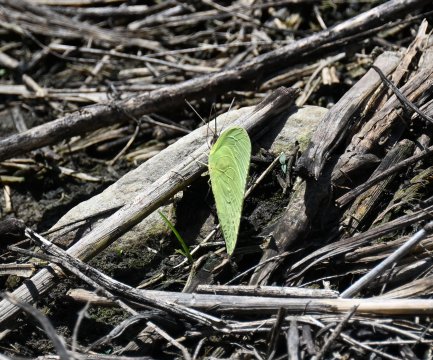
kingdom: Animalia
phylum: Arthropoda
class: Insecta
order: Lepidoptera
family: Pieridae
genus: Aphrissa
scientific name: Aphrissa statira
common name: Statira Sulphur
